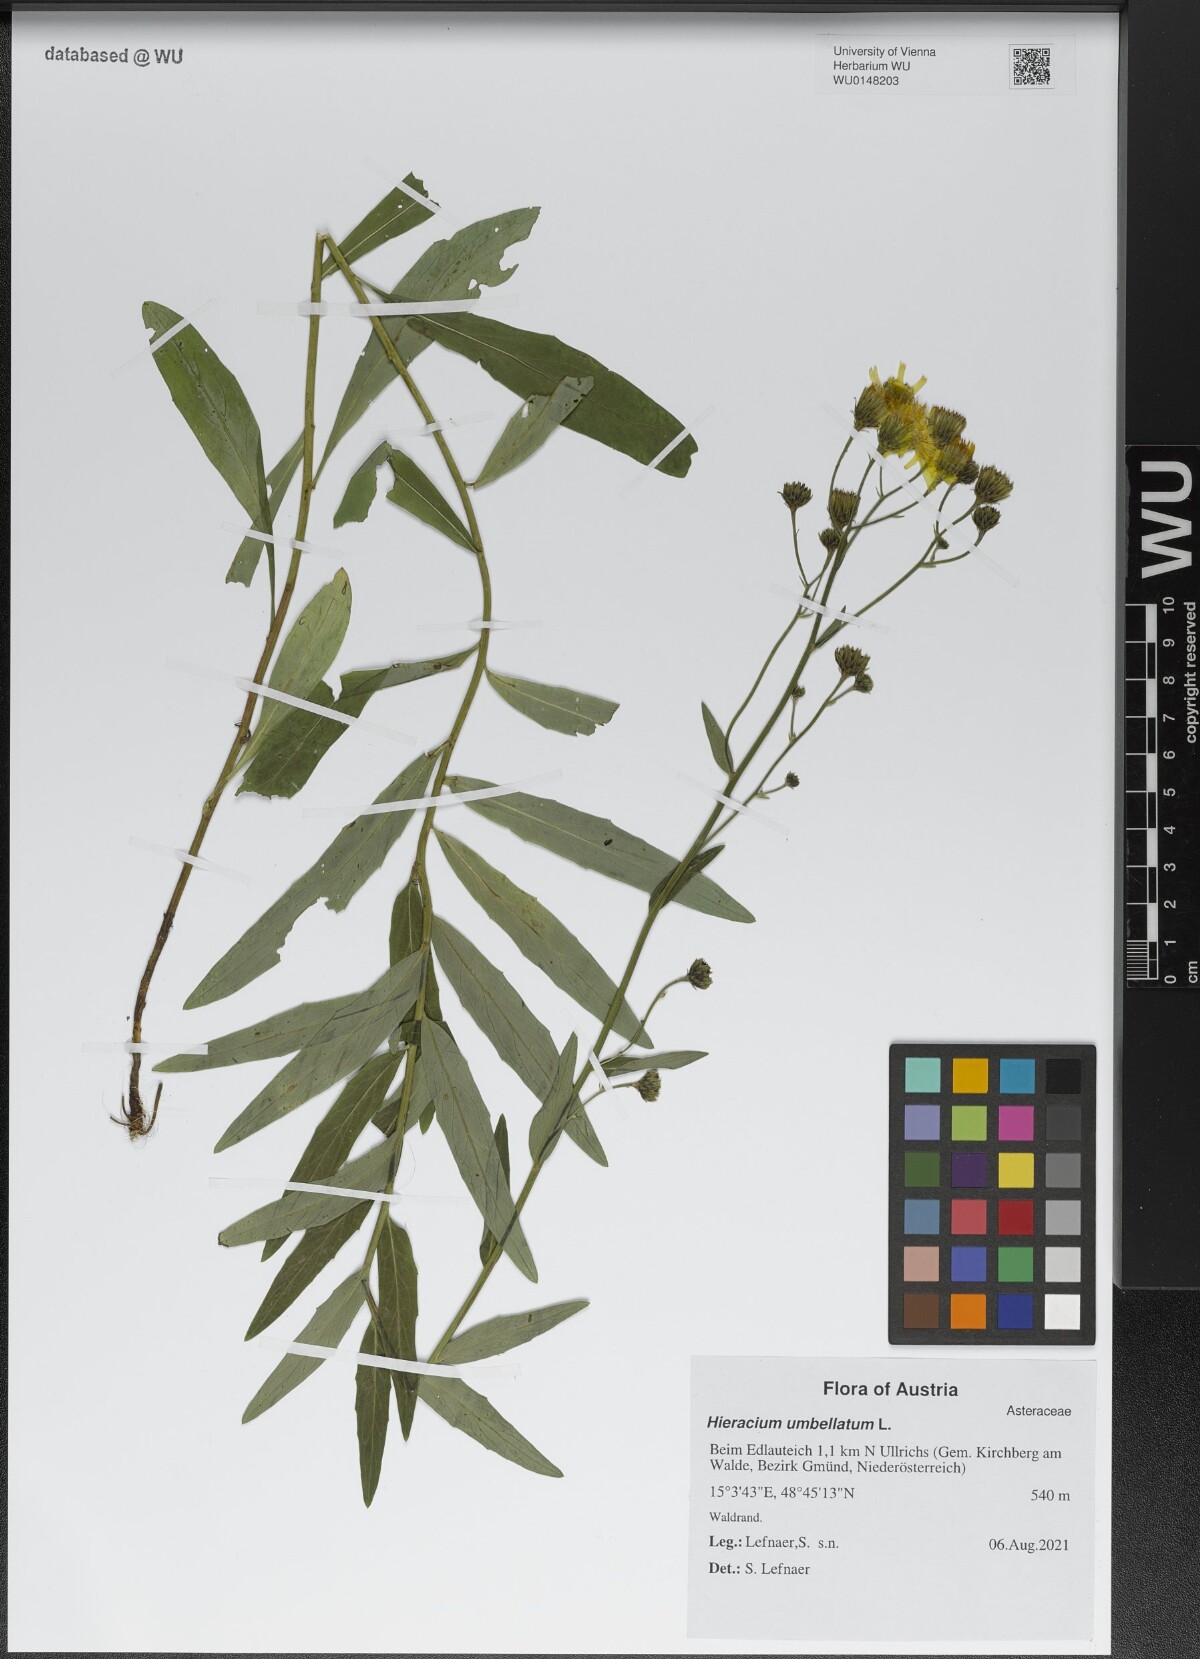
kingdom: Plantae
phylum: Tracheophyta
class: Magnoliopsida
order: Asterales
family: Asteraceae
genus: Hieracium
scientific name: Hieracium umbellatum
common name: Northern hawkweed
